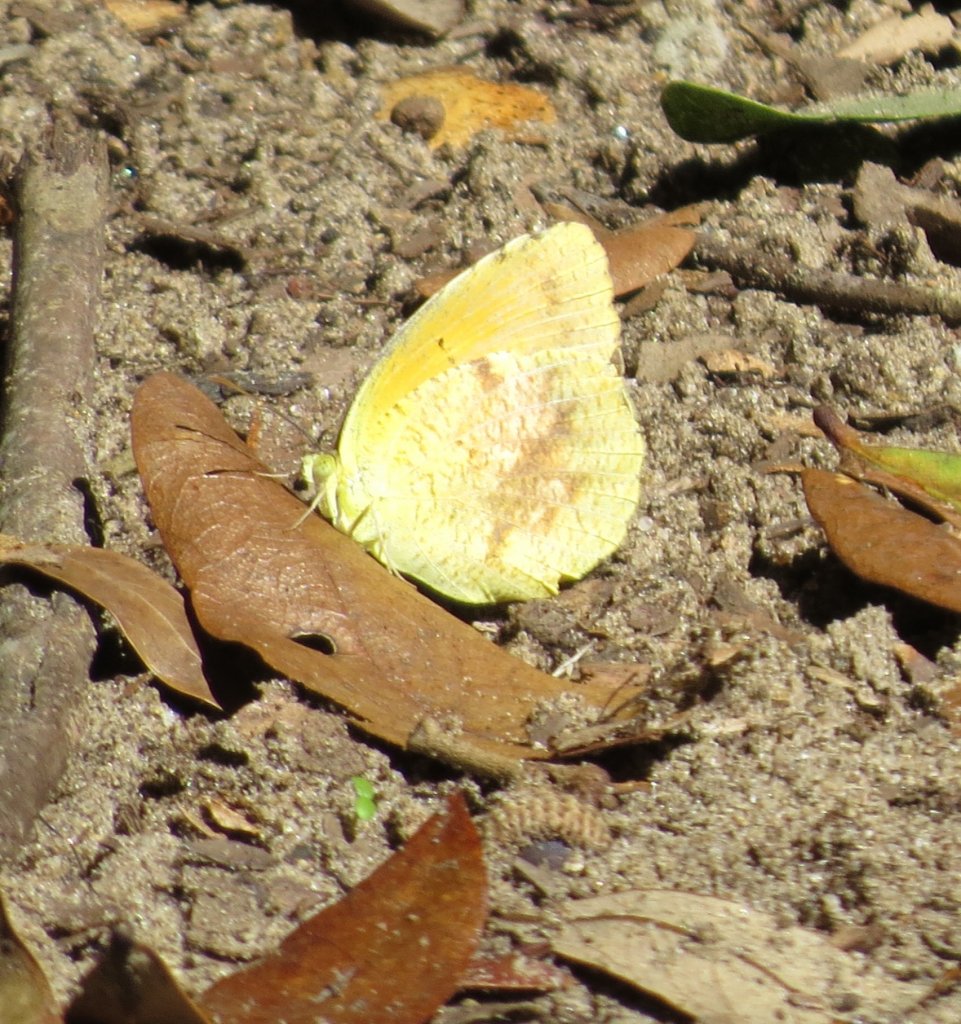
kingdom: Animalia
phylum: Arthropoda
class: Insecta
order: Lepidoptera
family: Pieridae
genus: Abaeis
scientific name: Abaeis nicippe
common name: Sleepy Orange
